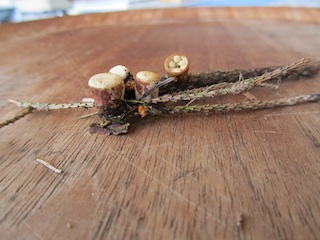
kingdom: Fungi
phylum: Basidiomycota
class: Agaricomycetes
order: Agaricales
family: Nidulariaceae
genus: Crucibulum
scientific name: Crucibulum crucibuliforme
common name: krukkesvamp
